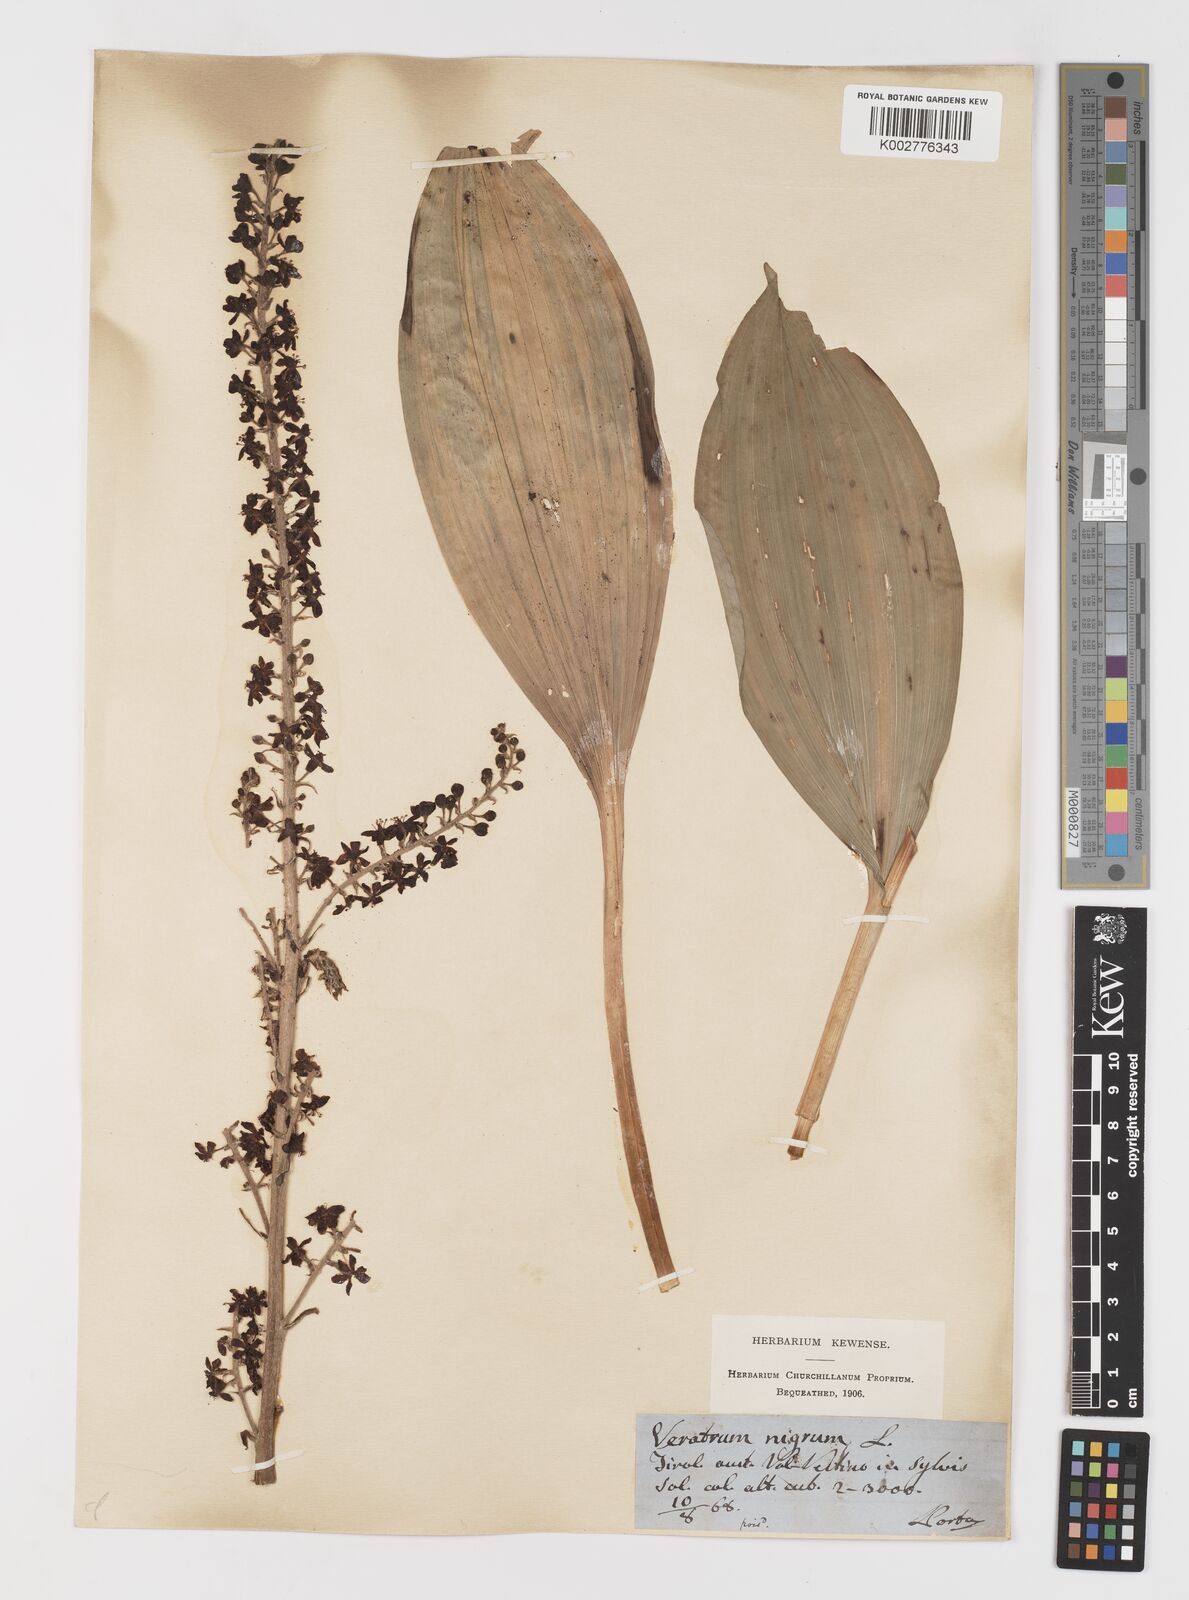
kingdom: Plantae
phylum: Tracheophyta
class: Liliopsida
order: Liliales
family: Melanthiaceae
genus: Veratrum
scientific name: Veratrum nigrum
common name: Black veratrum
